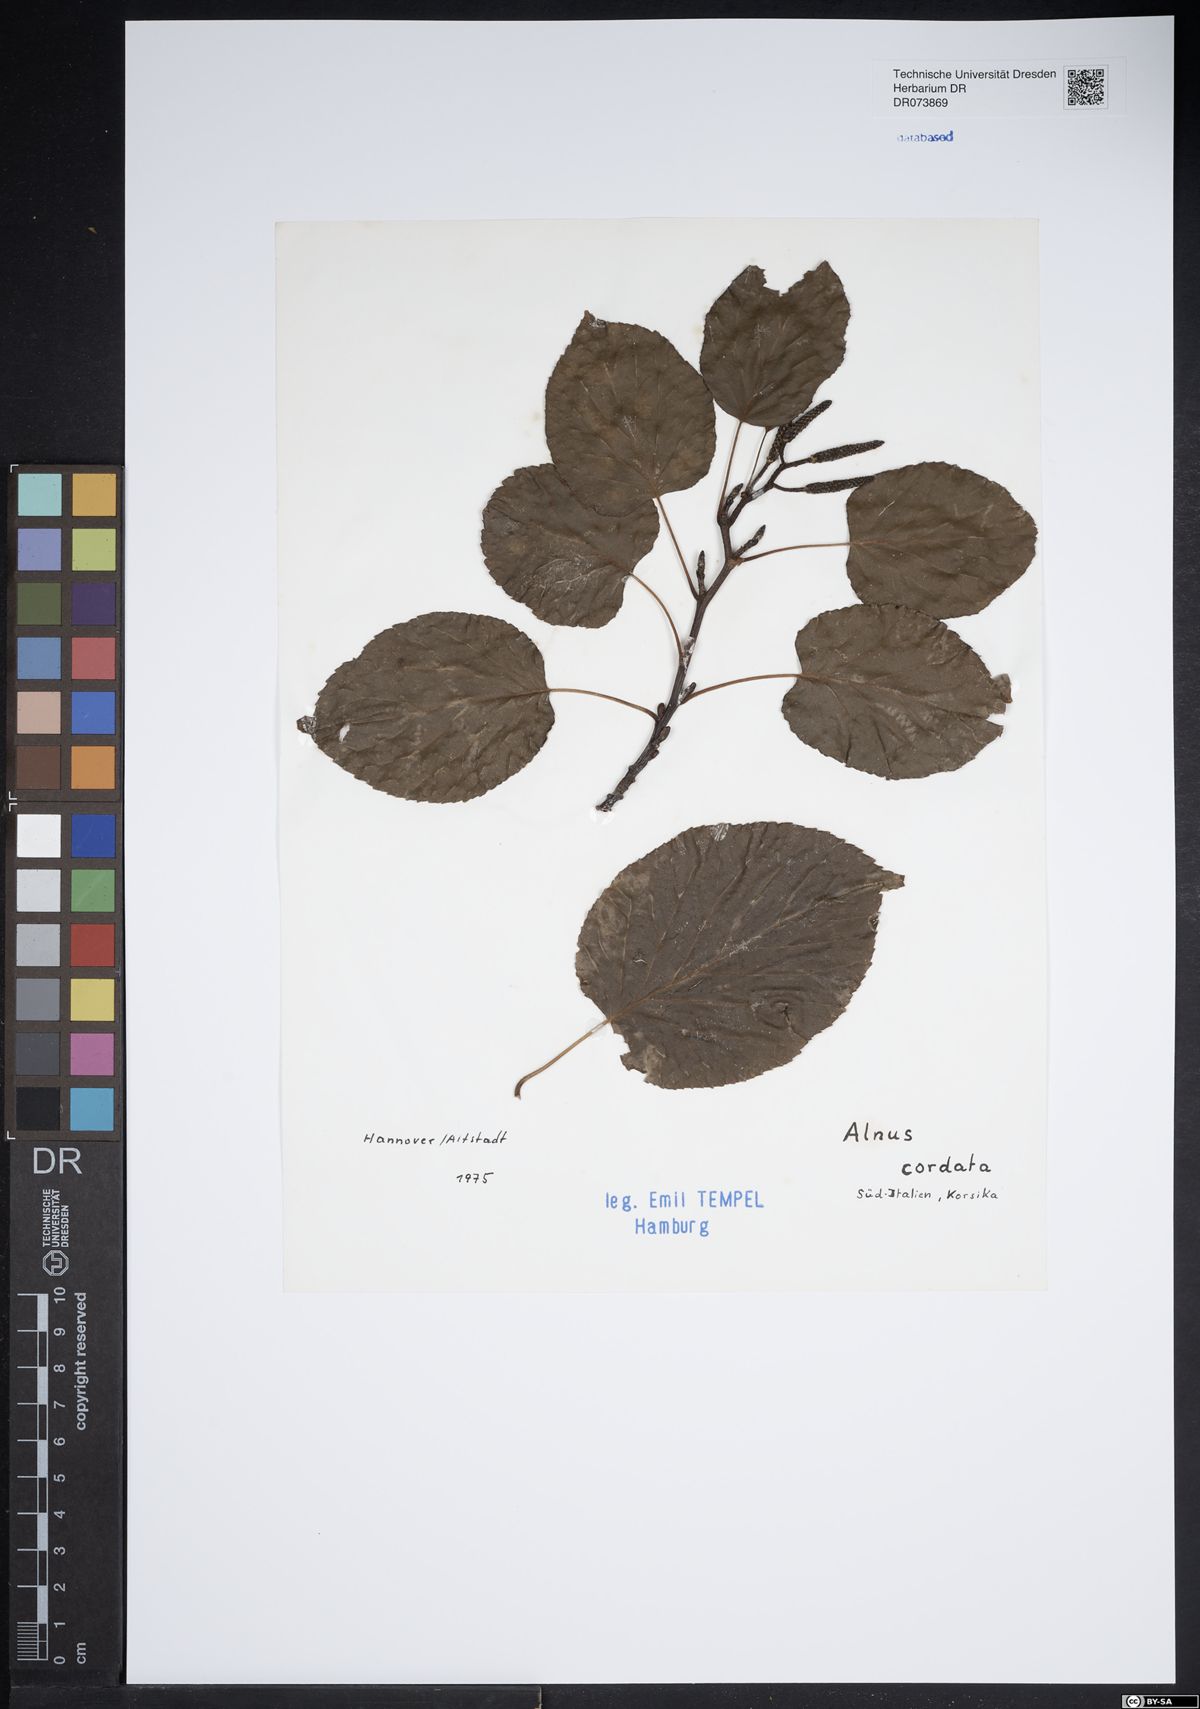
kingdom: Plantae
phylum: Tracheophyta
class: Magnoliopsida
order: Fagales
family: Betulaceae
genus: Alnus
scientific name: Alnus cordata
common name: Italian alder
